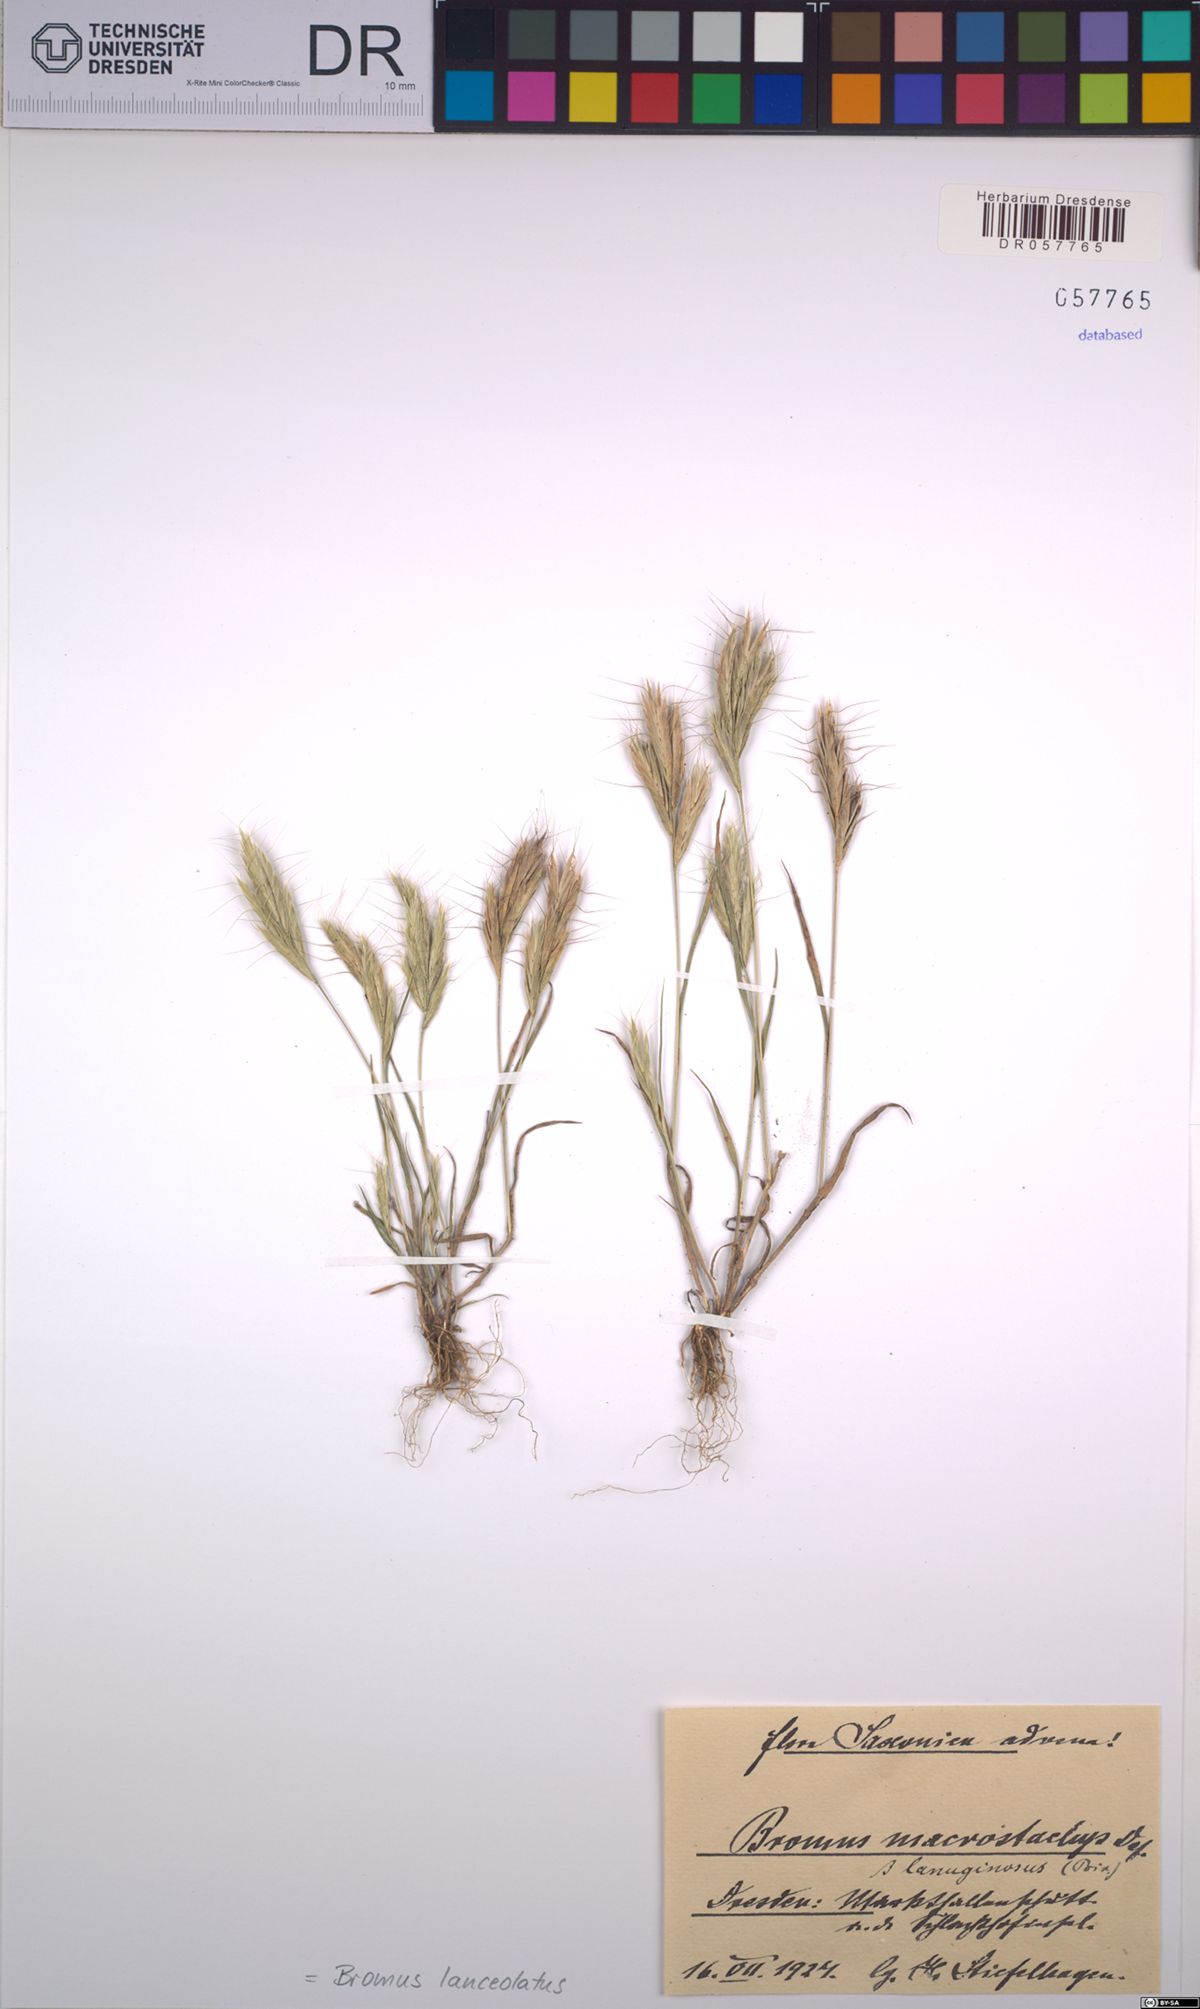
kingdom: Plantae
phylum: Tracheophyta
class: Liliopsida
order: Poales
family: Poaceae
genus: Bromus
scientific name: Bromus lanceolatus
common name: Mediterranean brome
